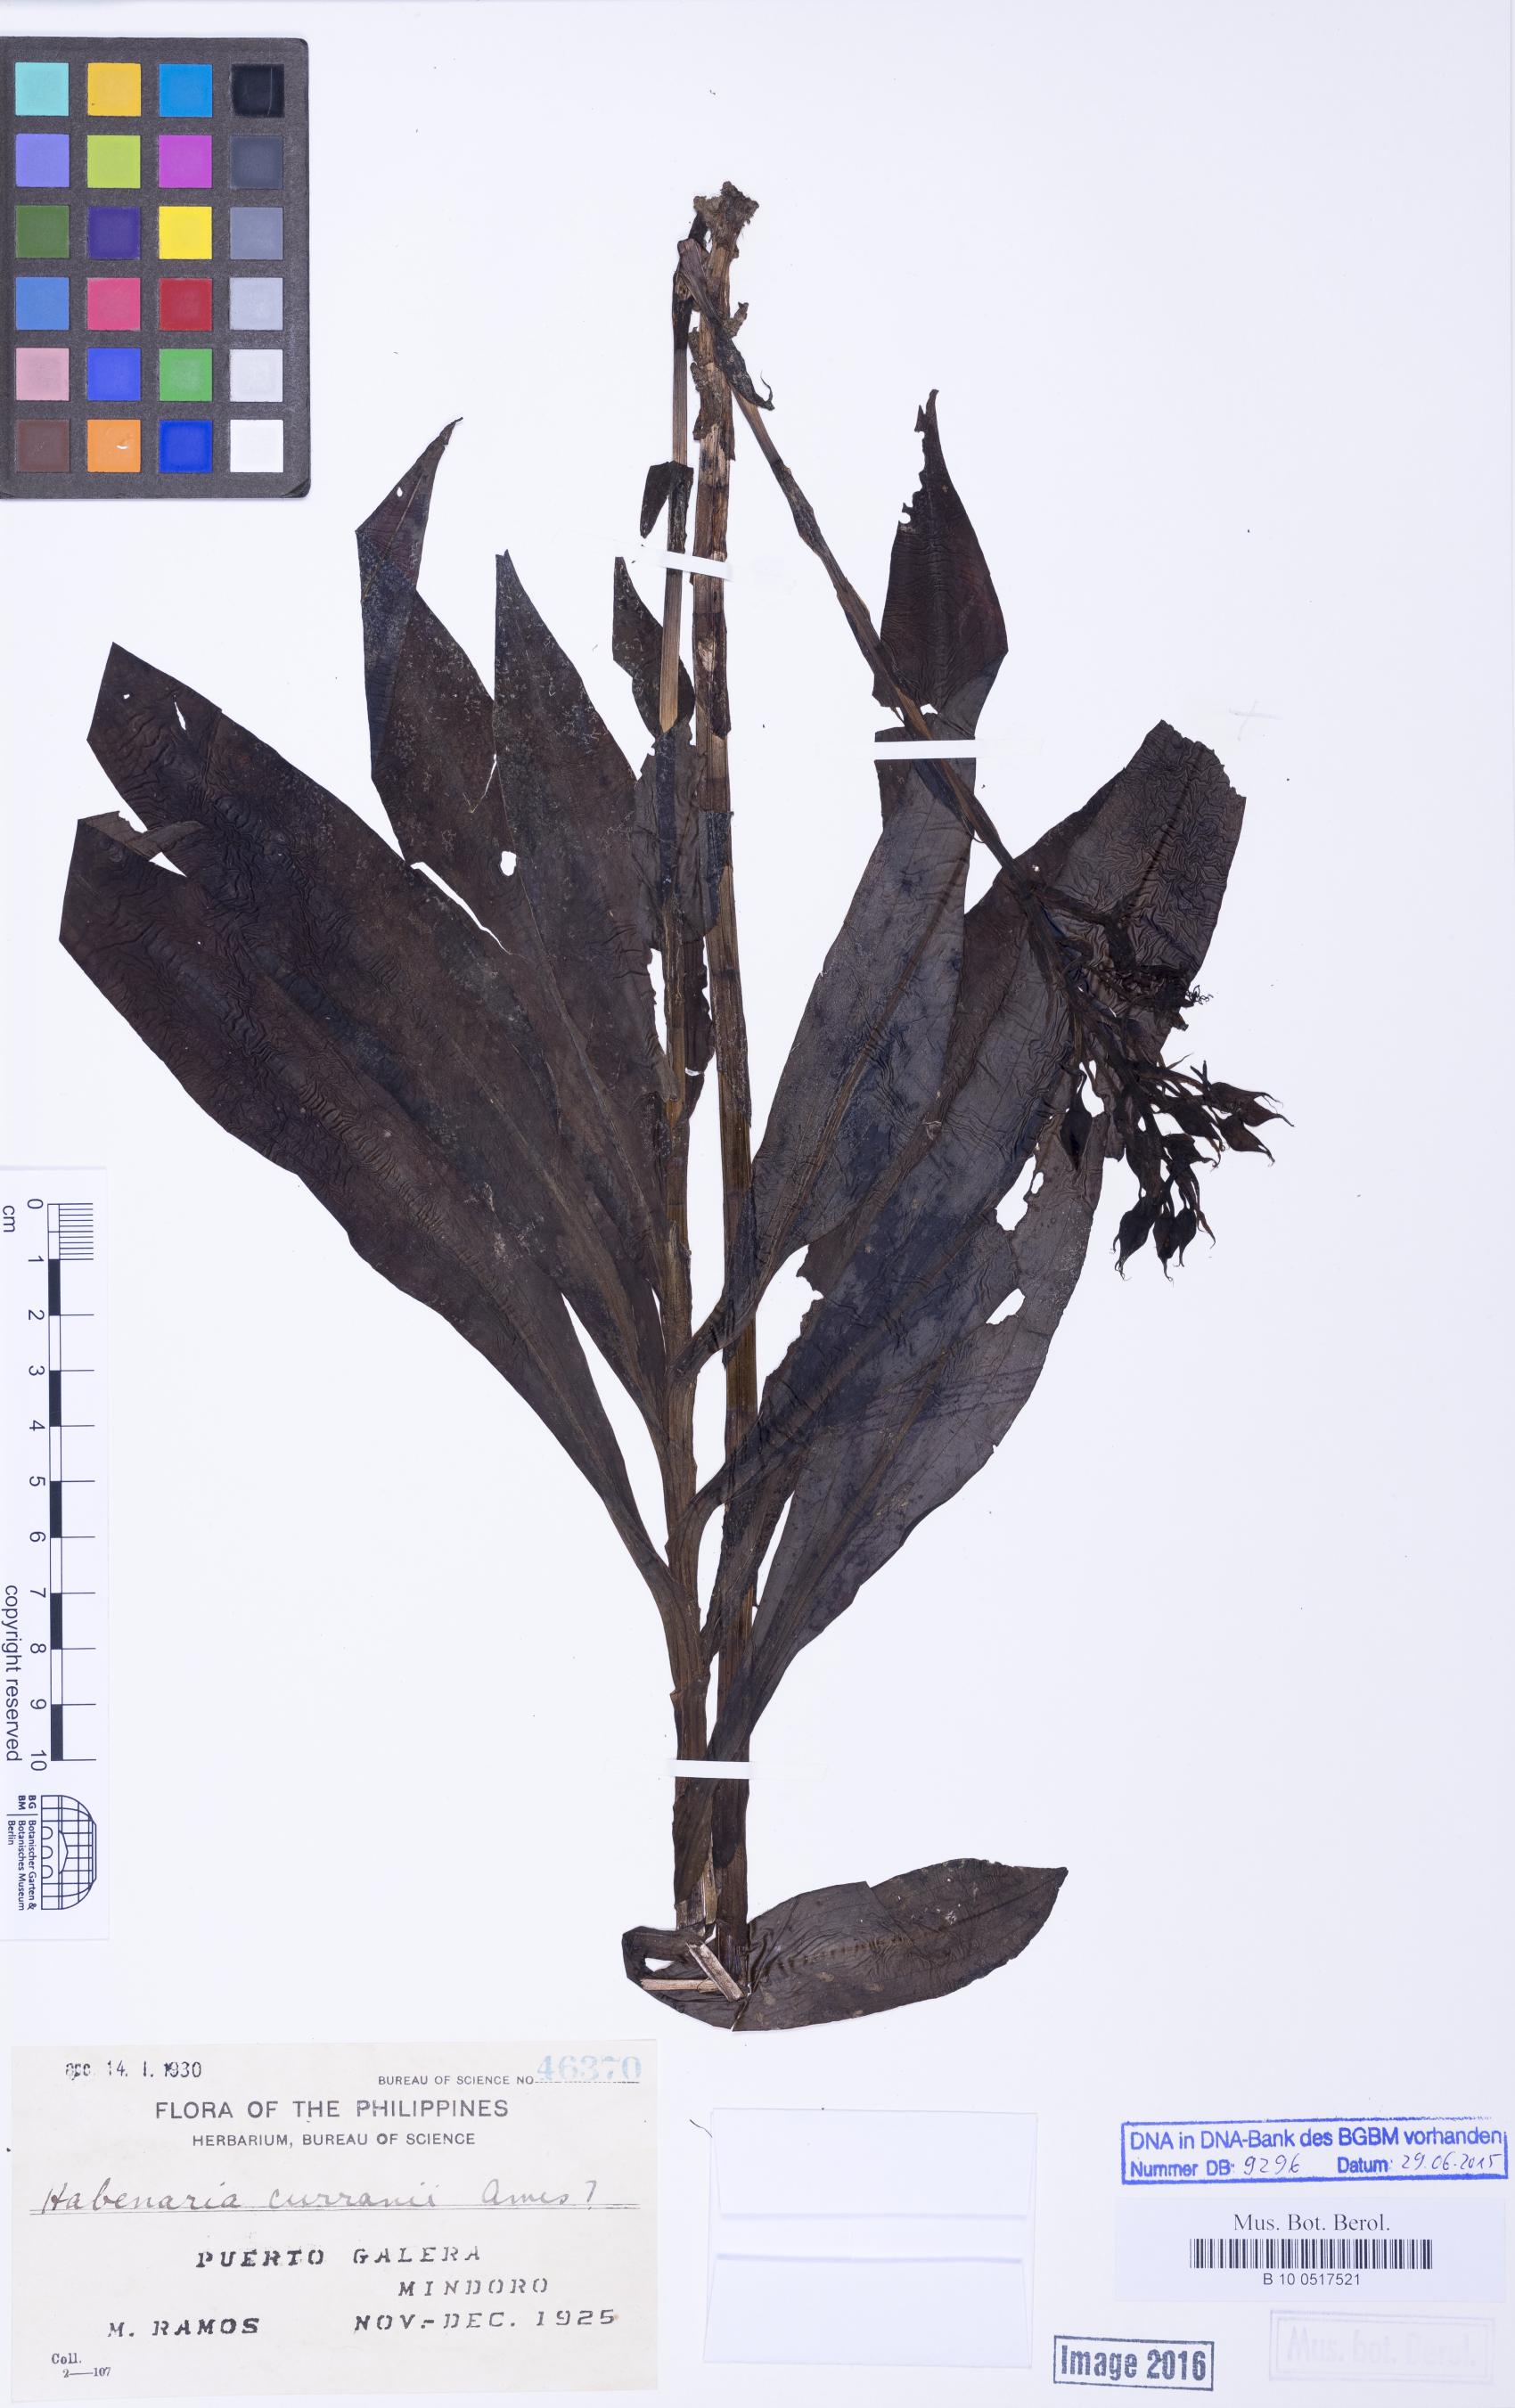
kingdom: Plantae
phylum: Tracheophyta
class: Liliopsida
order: Asparagales
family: Orchidaceae
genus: Habenaria
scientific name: Habenaria curranii
